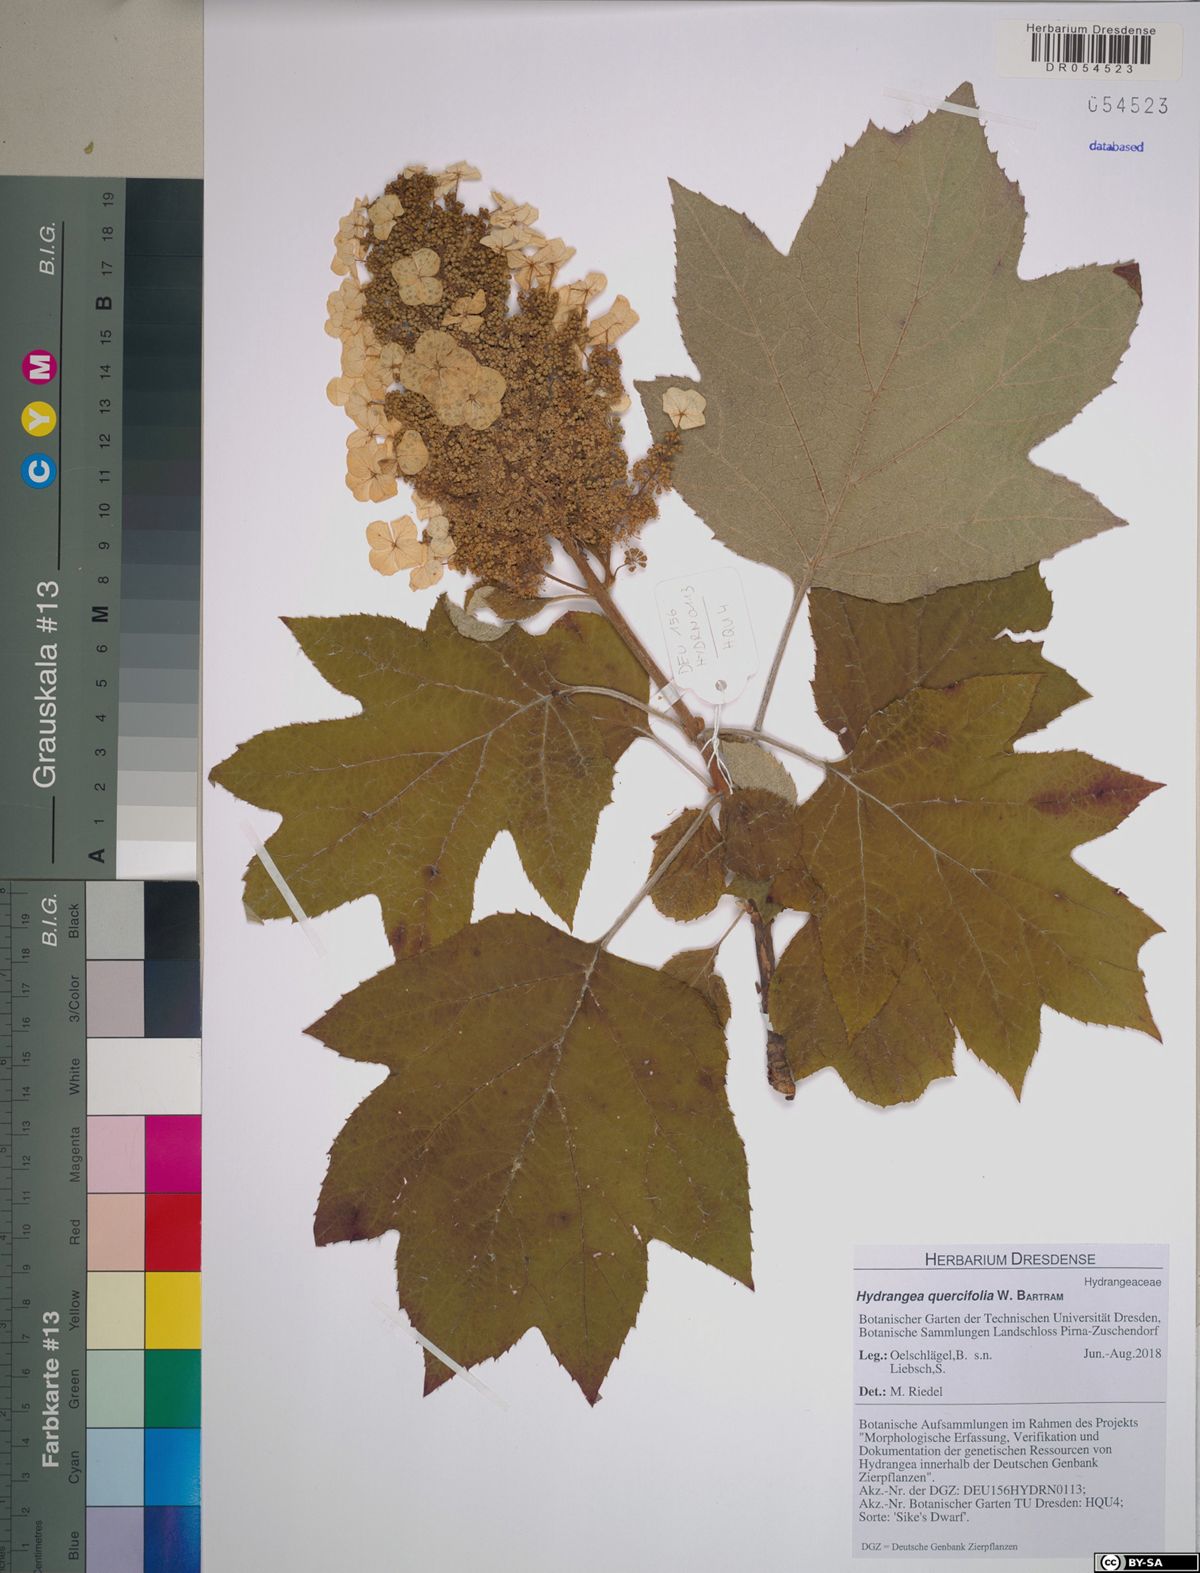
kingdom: Plantae
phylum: Tracheophyta
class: Magnoliopsida
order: Cornales
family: Hydrangeaceae
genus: Hydrangea
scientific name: Hydrangea quercifolia
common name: Oak-leaf hydrangea
